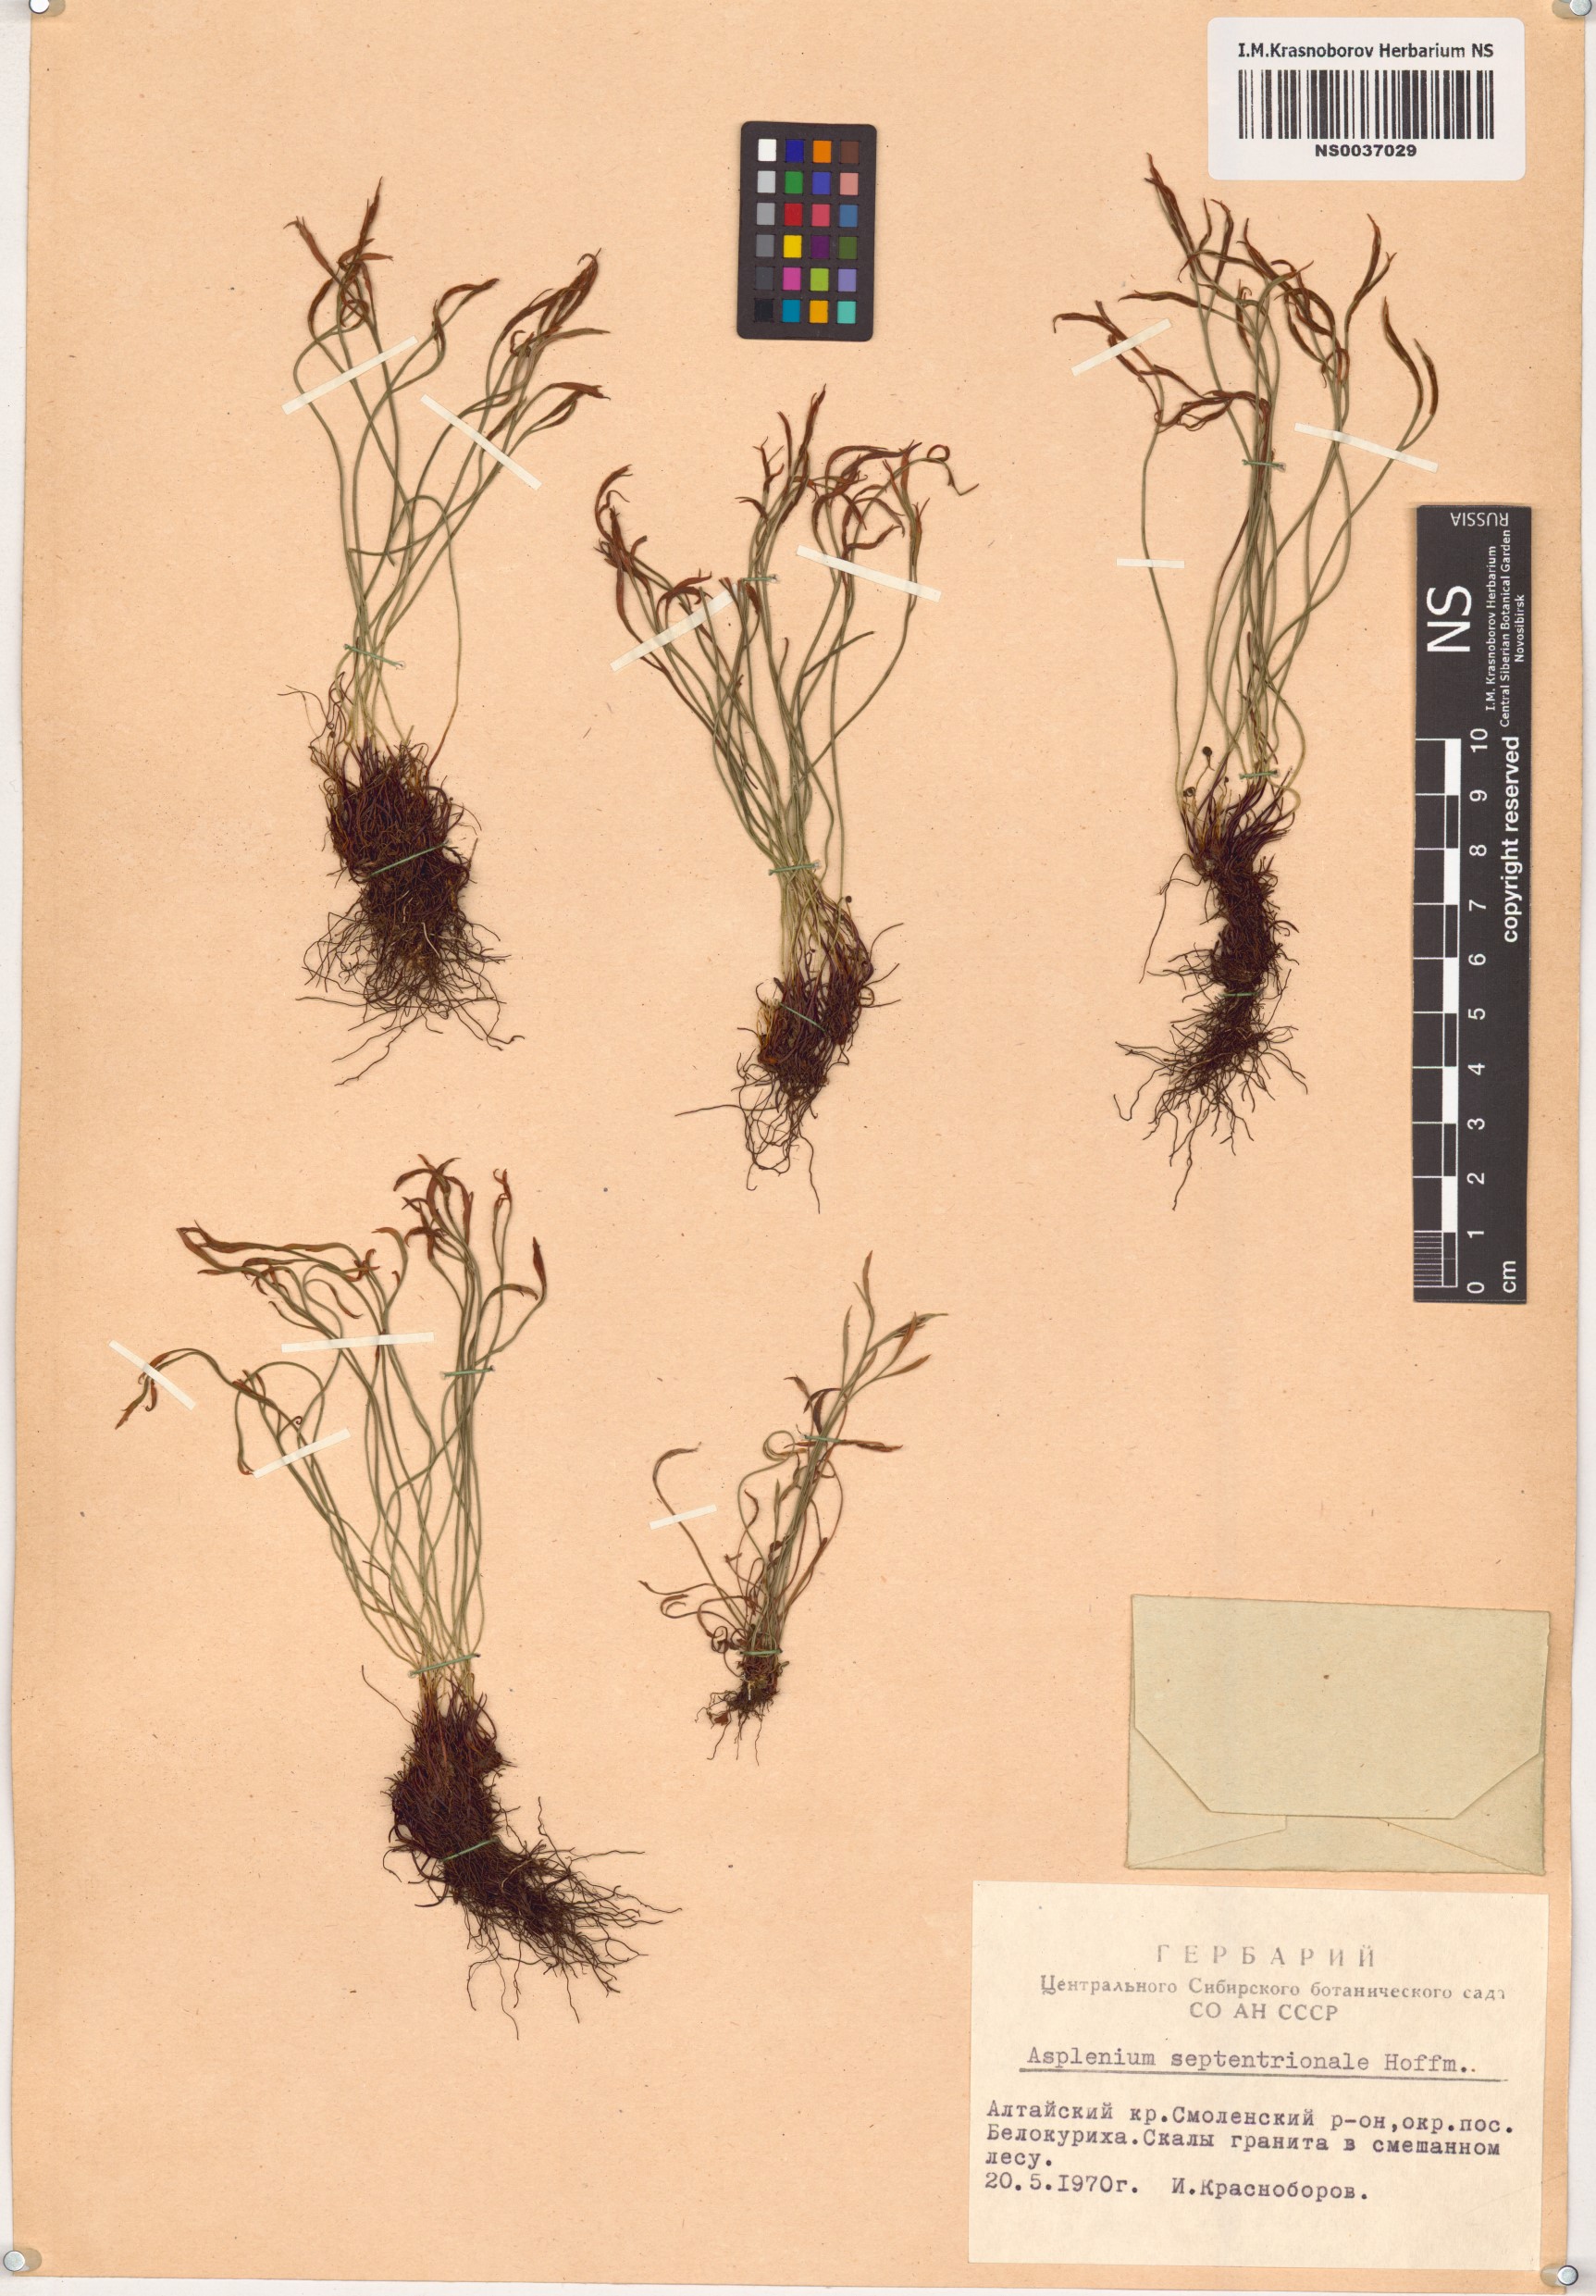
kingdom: Plantae
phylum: Tracheophyta
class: Polypodiopsida
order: Polypodiales
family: Aspleniaceae
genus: Asplenium
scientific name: Asplenium septentrionale
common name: Forked spleenwort
